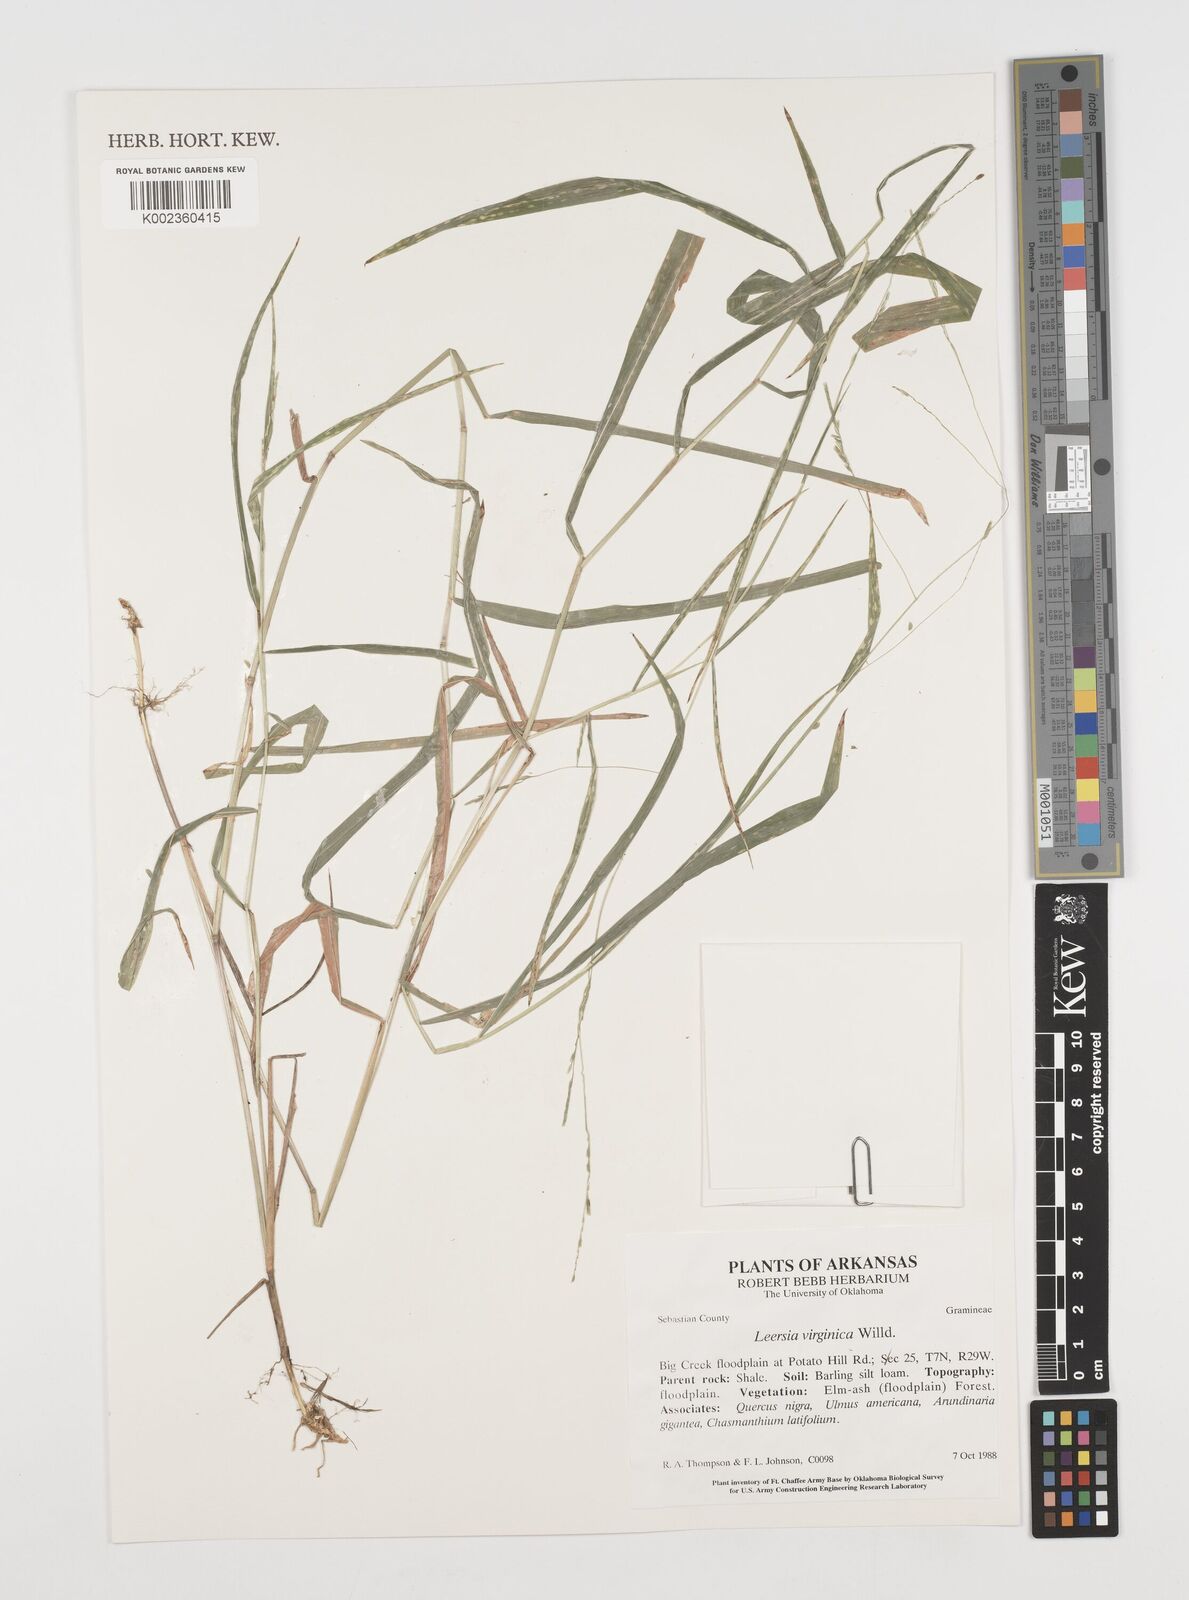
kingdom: Plantae
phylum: Tracheophyta
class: Liliopsida
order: Poales
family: Poaceae
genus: Leersia
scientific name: Leersia virginica
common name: White cutgrass
